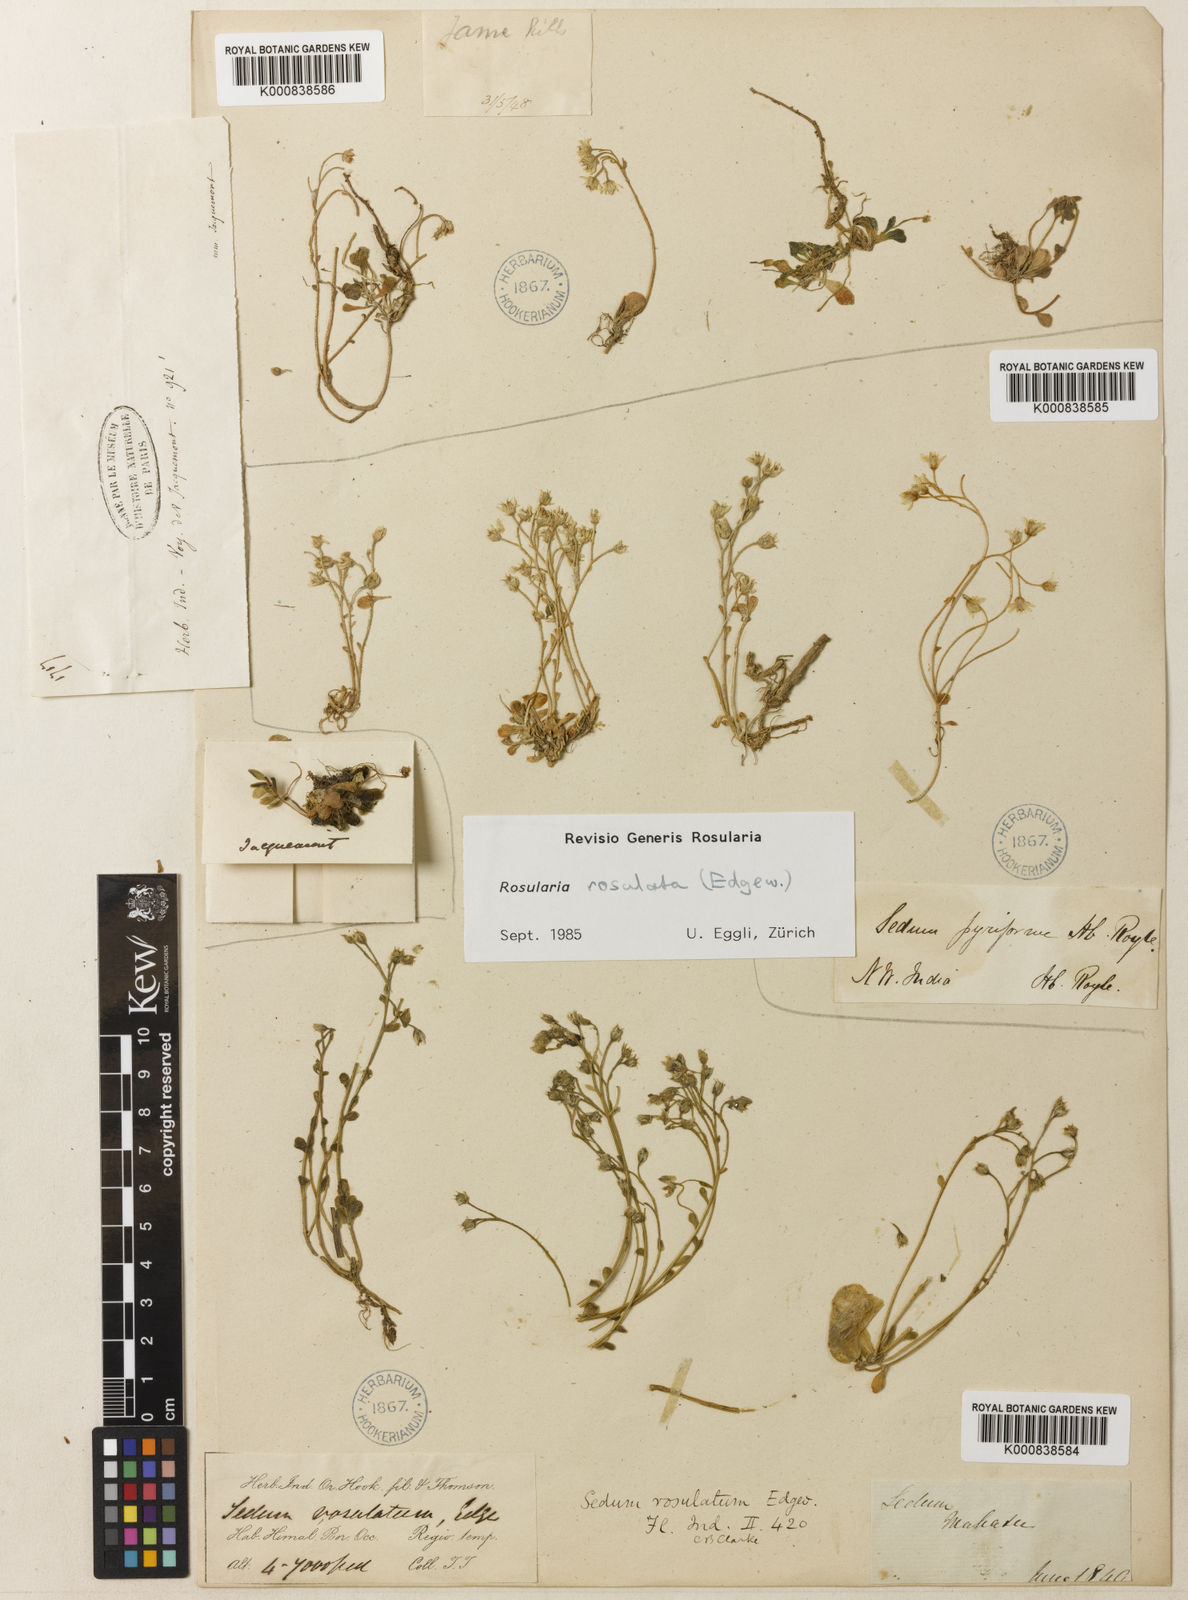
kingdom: Plantae
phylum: Tracheophyta
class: Magnoliopsida
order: Saxifragales
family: Crassulaceae
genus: Rosularia
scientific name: Rosularia rosulata
